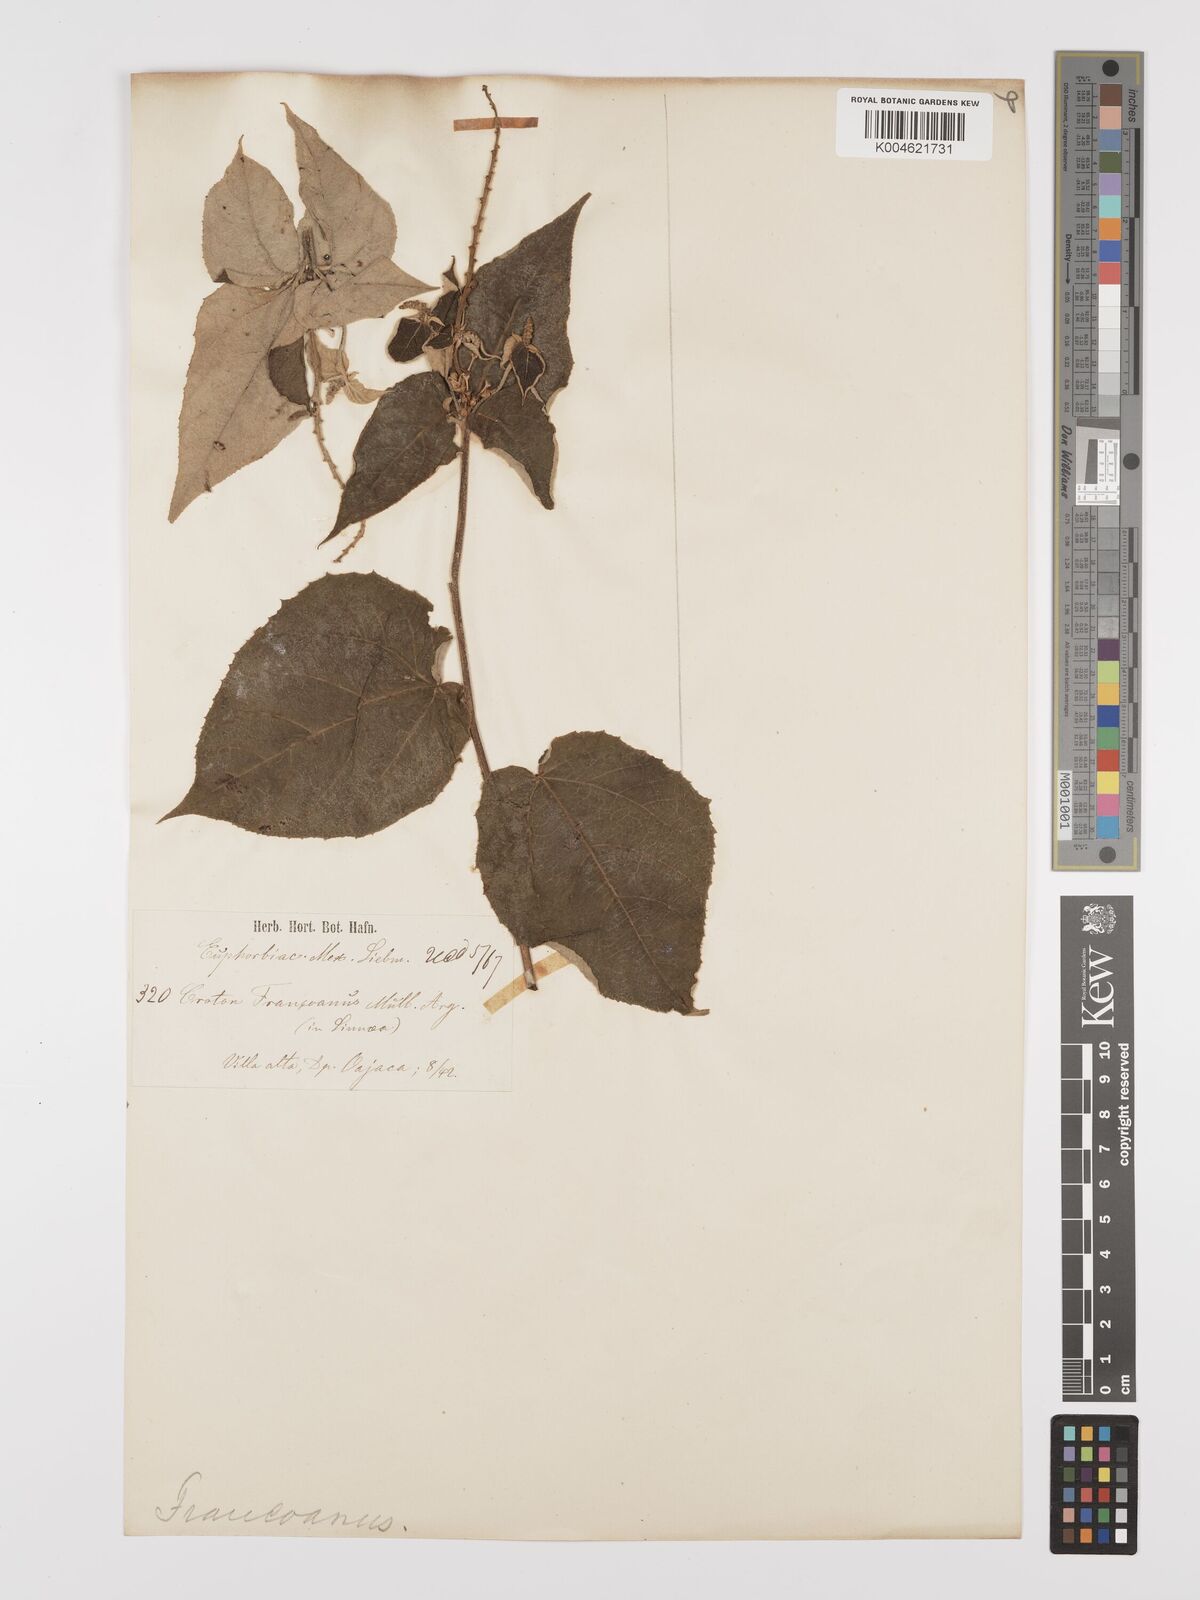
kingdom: Plantae
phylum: Tracheophyta
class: Magnoliopsida
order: Malpighiales
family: Euphorbiaceae
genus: Croton
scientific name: Croton francoanus
